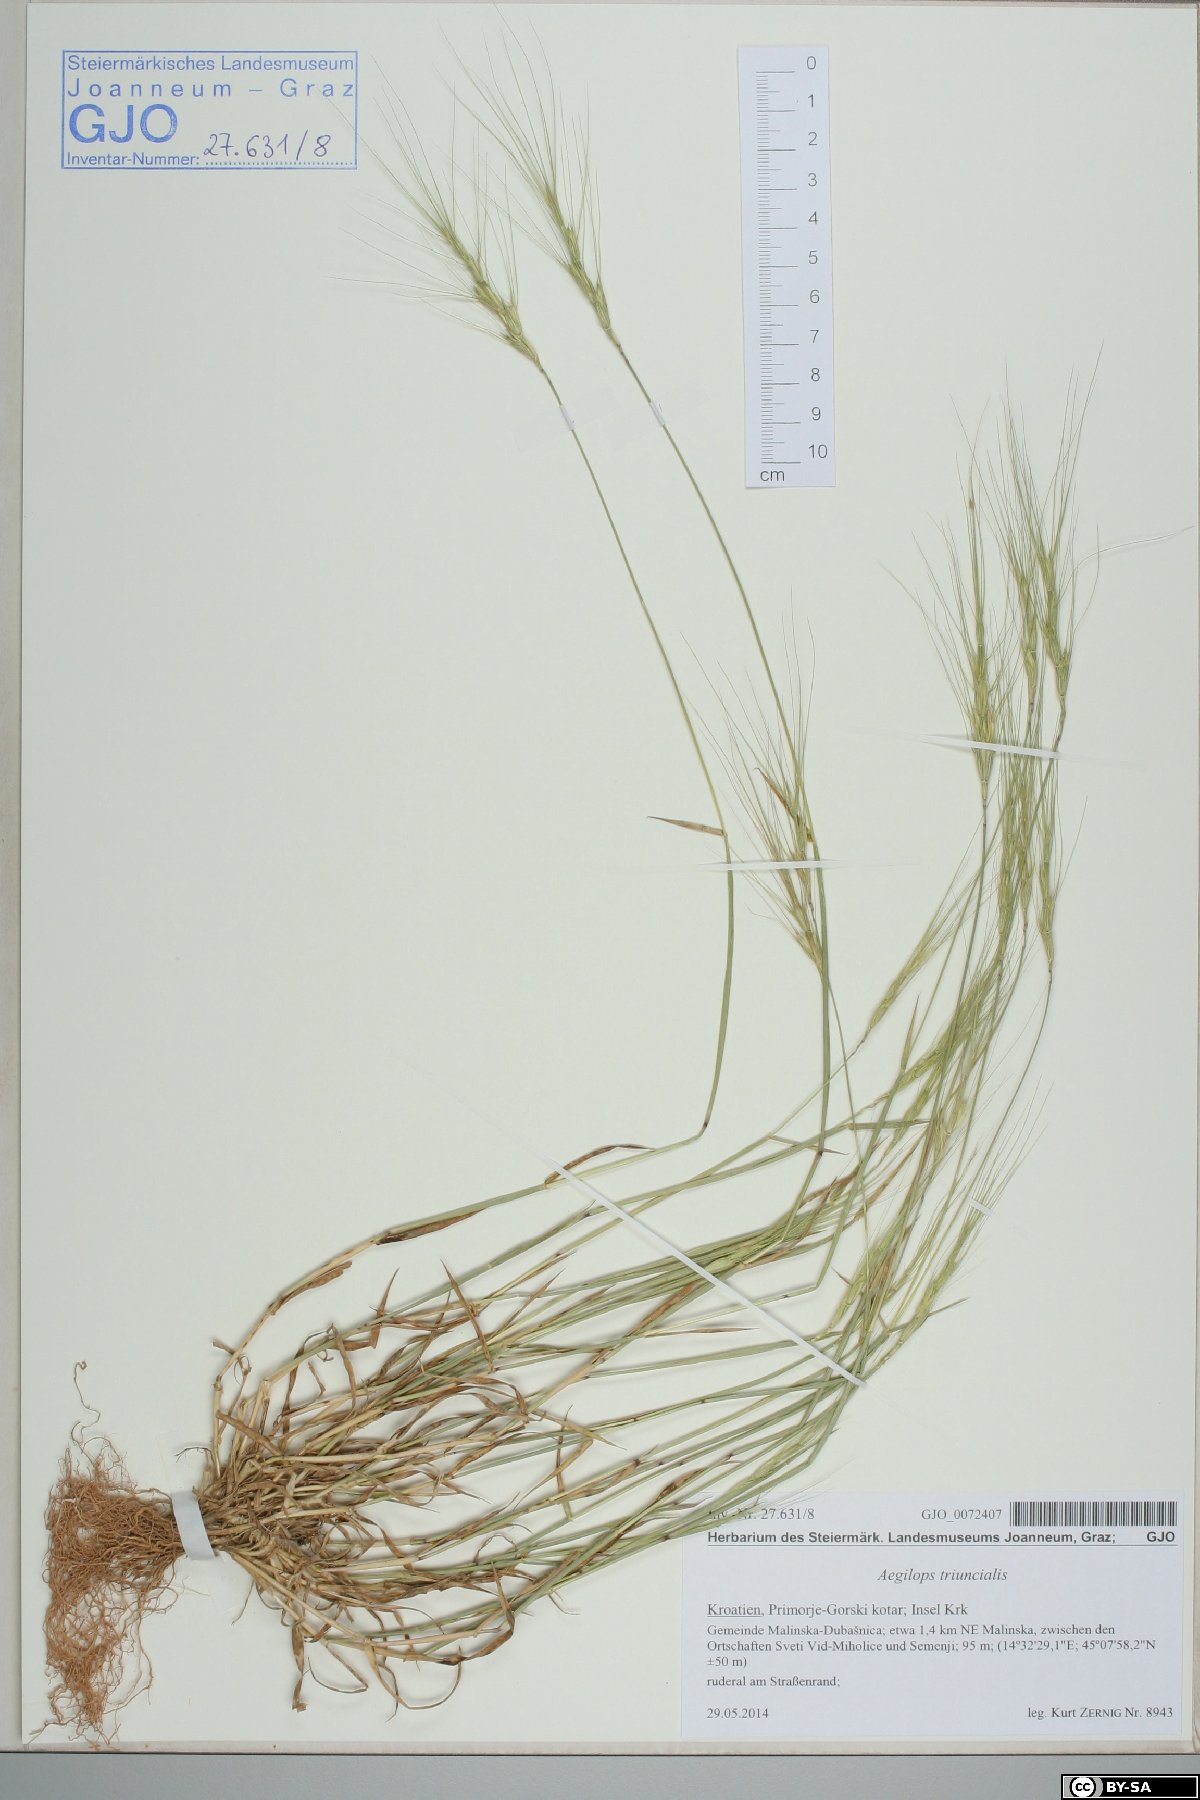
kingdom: Plantae
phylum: Tracheophyta
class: Liliopsida
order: Poales
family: Poaceae
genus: Aegilops
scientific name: Aegilops triuncialis
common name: Barb goat grass
